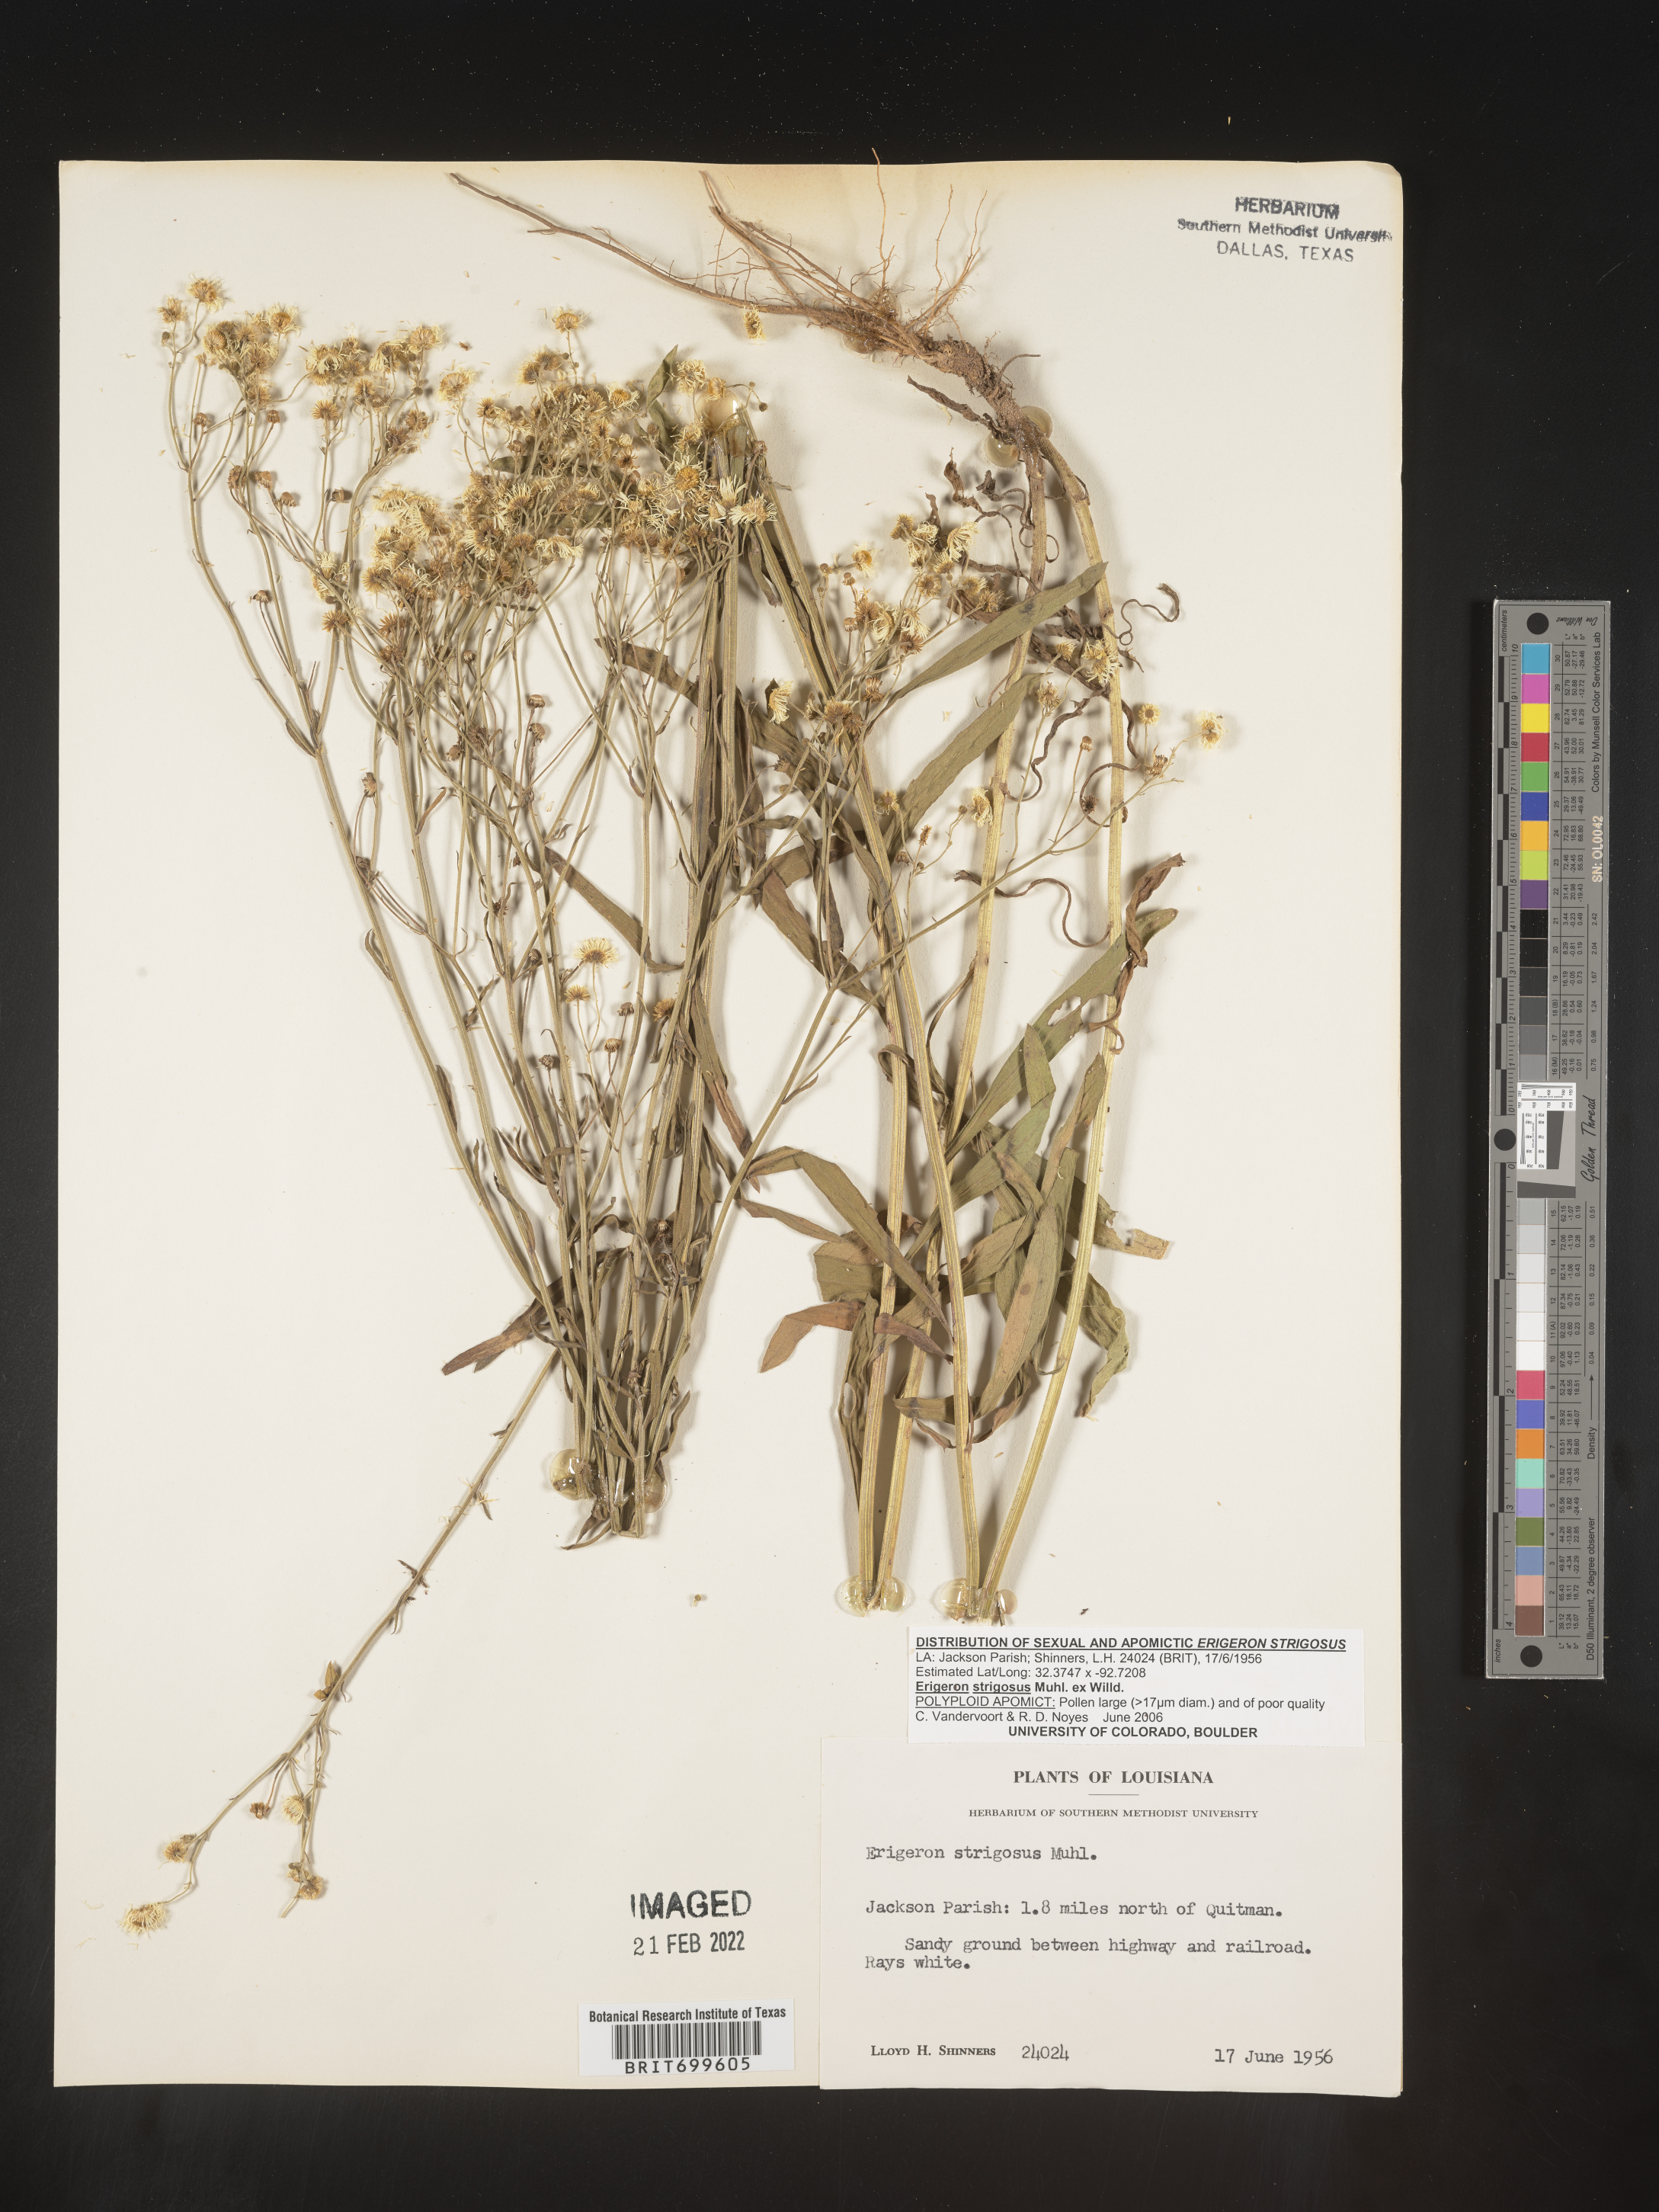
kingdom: Plantae
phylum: Tracheophyta
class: Magnoliopsida
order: Asterales
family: Asteraceae
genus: Erigeron
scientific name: Erigeron strigosus
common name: Common eastern fleabane
